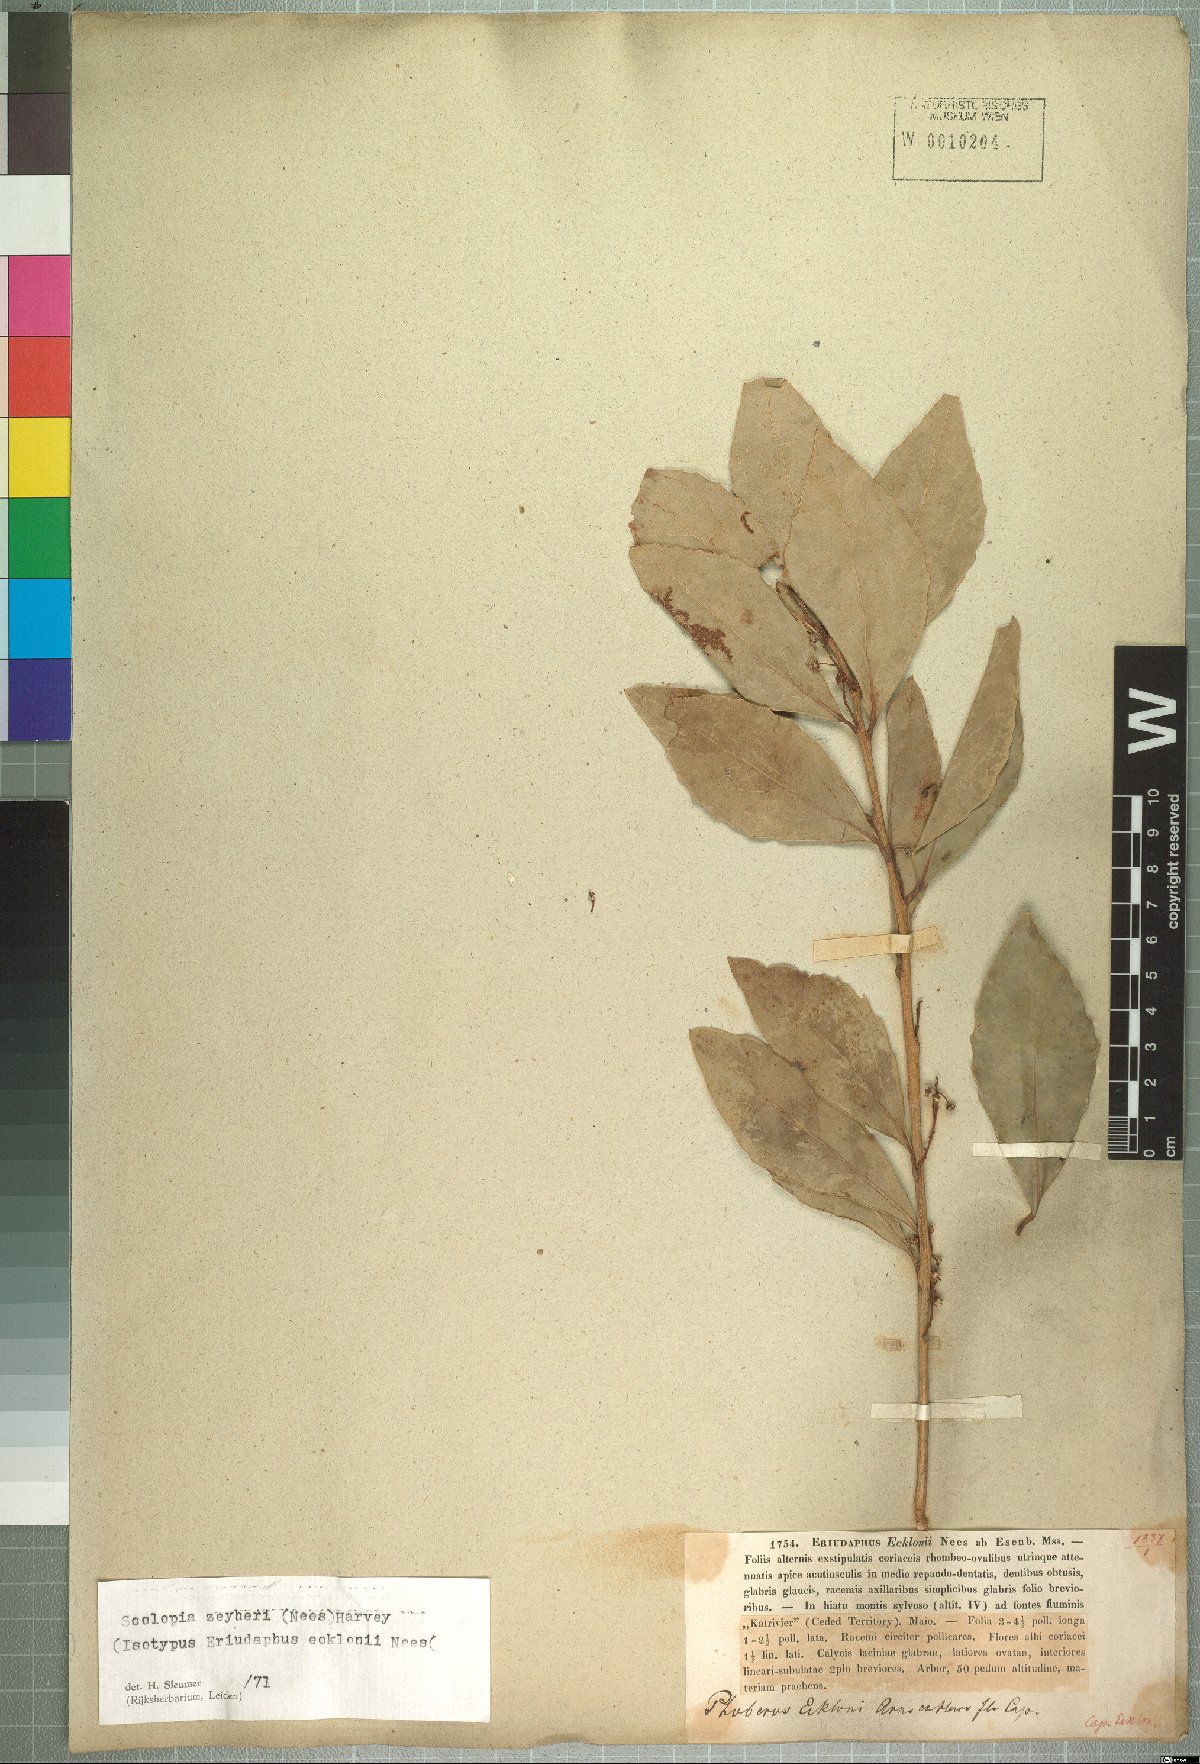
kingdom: Plantae
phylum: Tracheophyta
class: Magnoliopsida
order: Malpighiales
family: Salicaceae
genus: Scolopia
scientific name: Scolopia zeyheri
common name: Thorn pear
